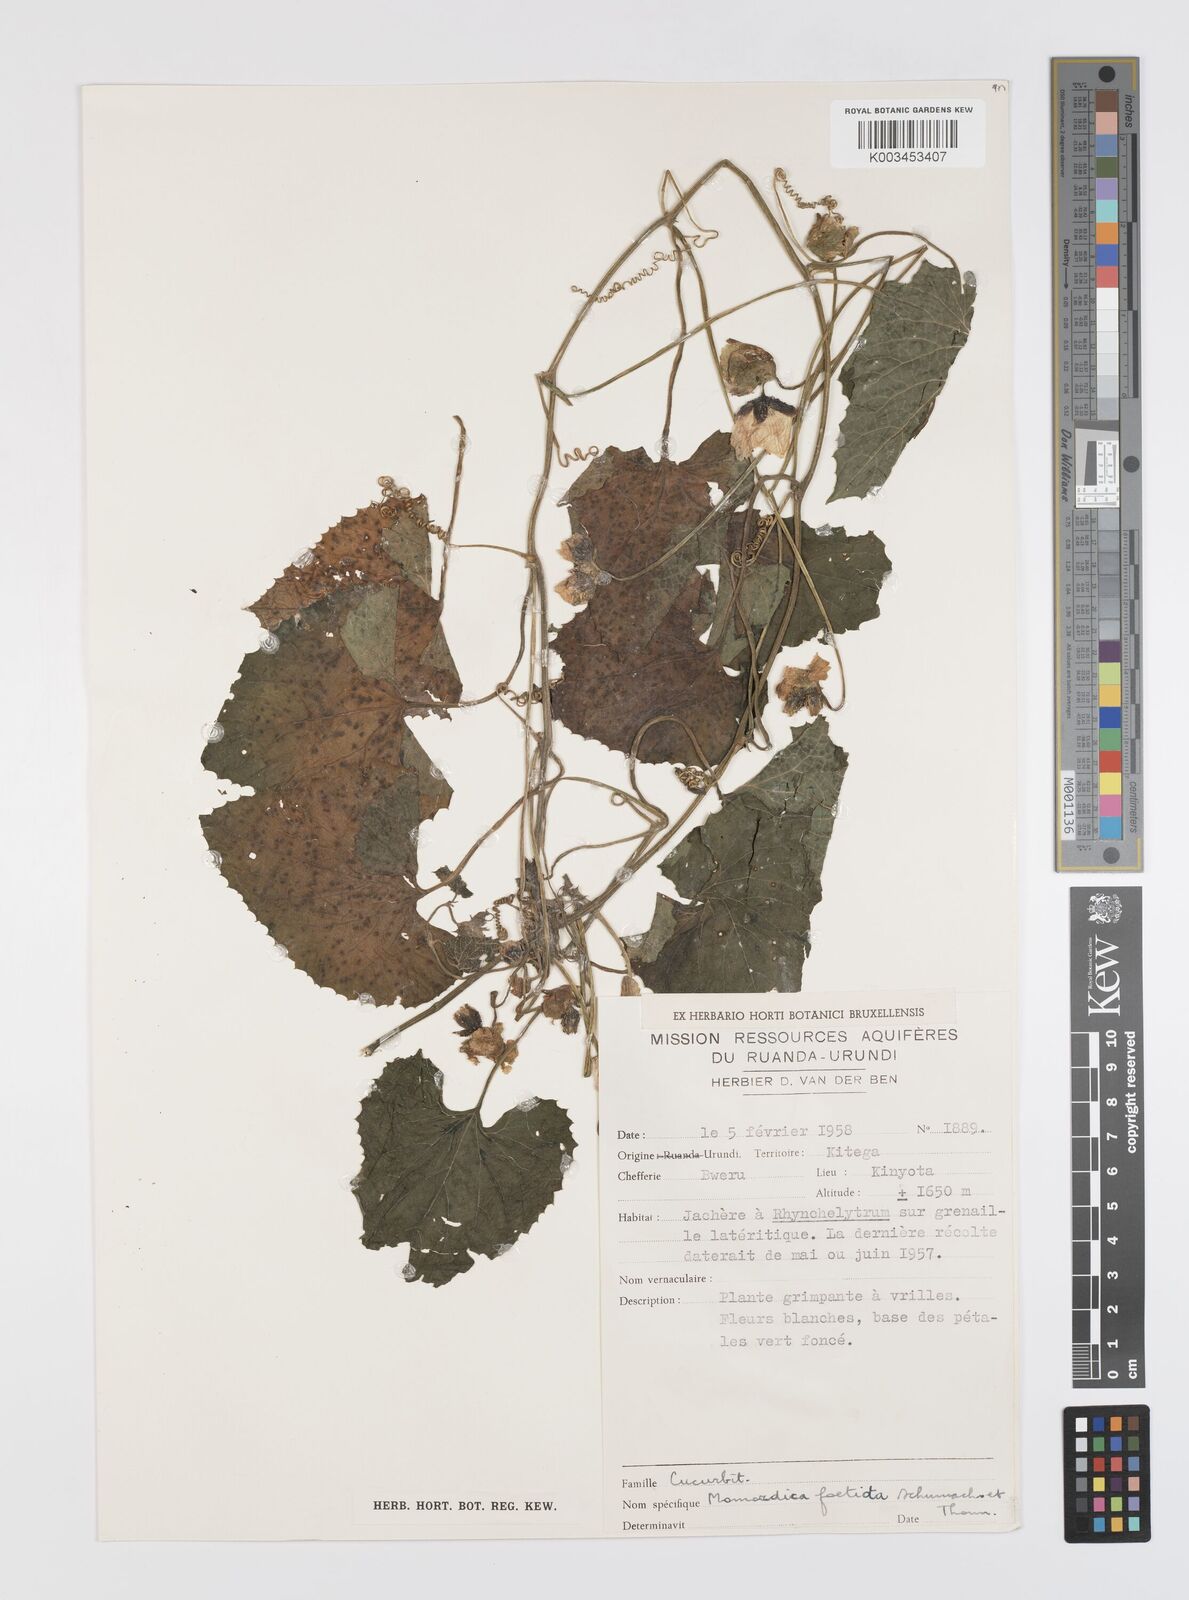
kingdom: Plantae
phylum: Tracheophyta
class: Magnoliopsida
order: Cucurbitales
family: Cucurbitaceae
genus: Momordica
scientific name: Momordica foetida
